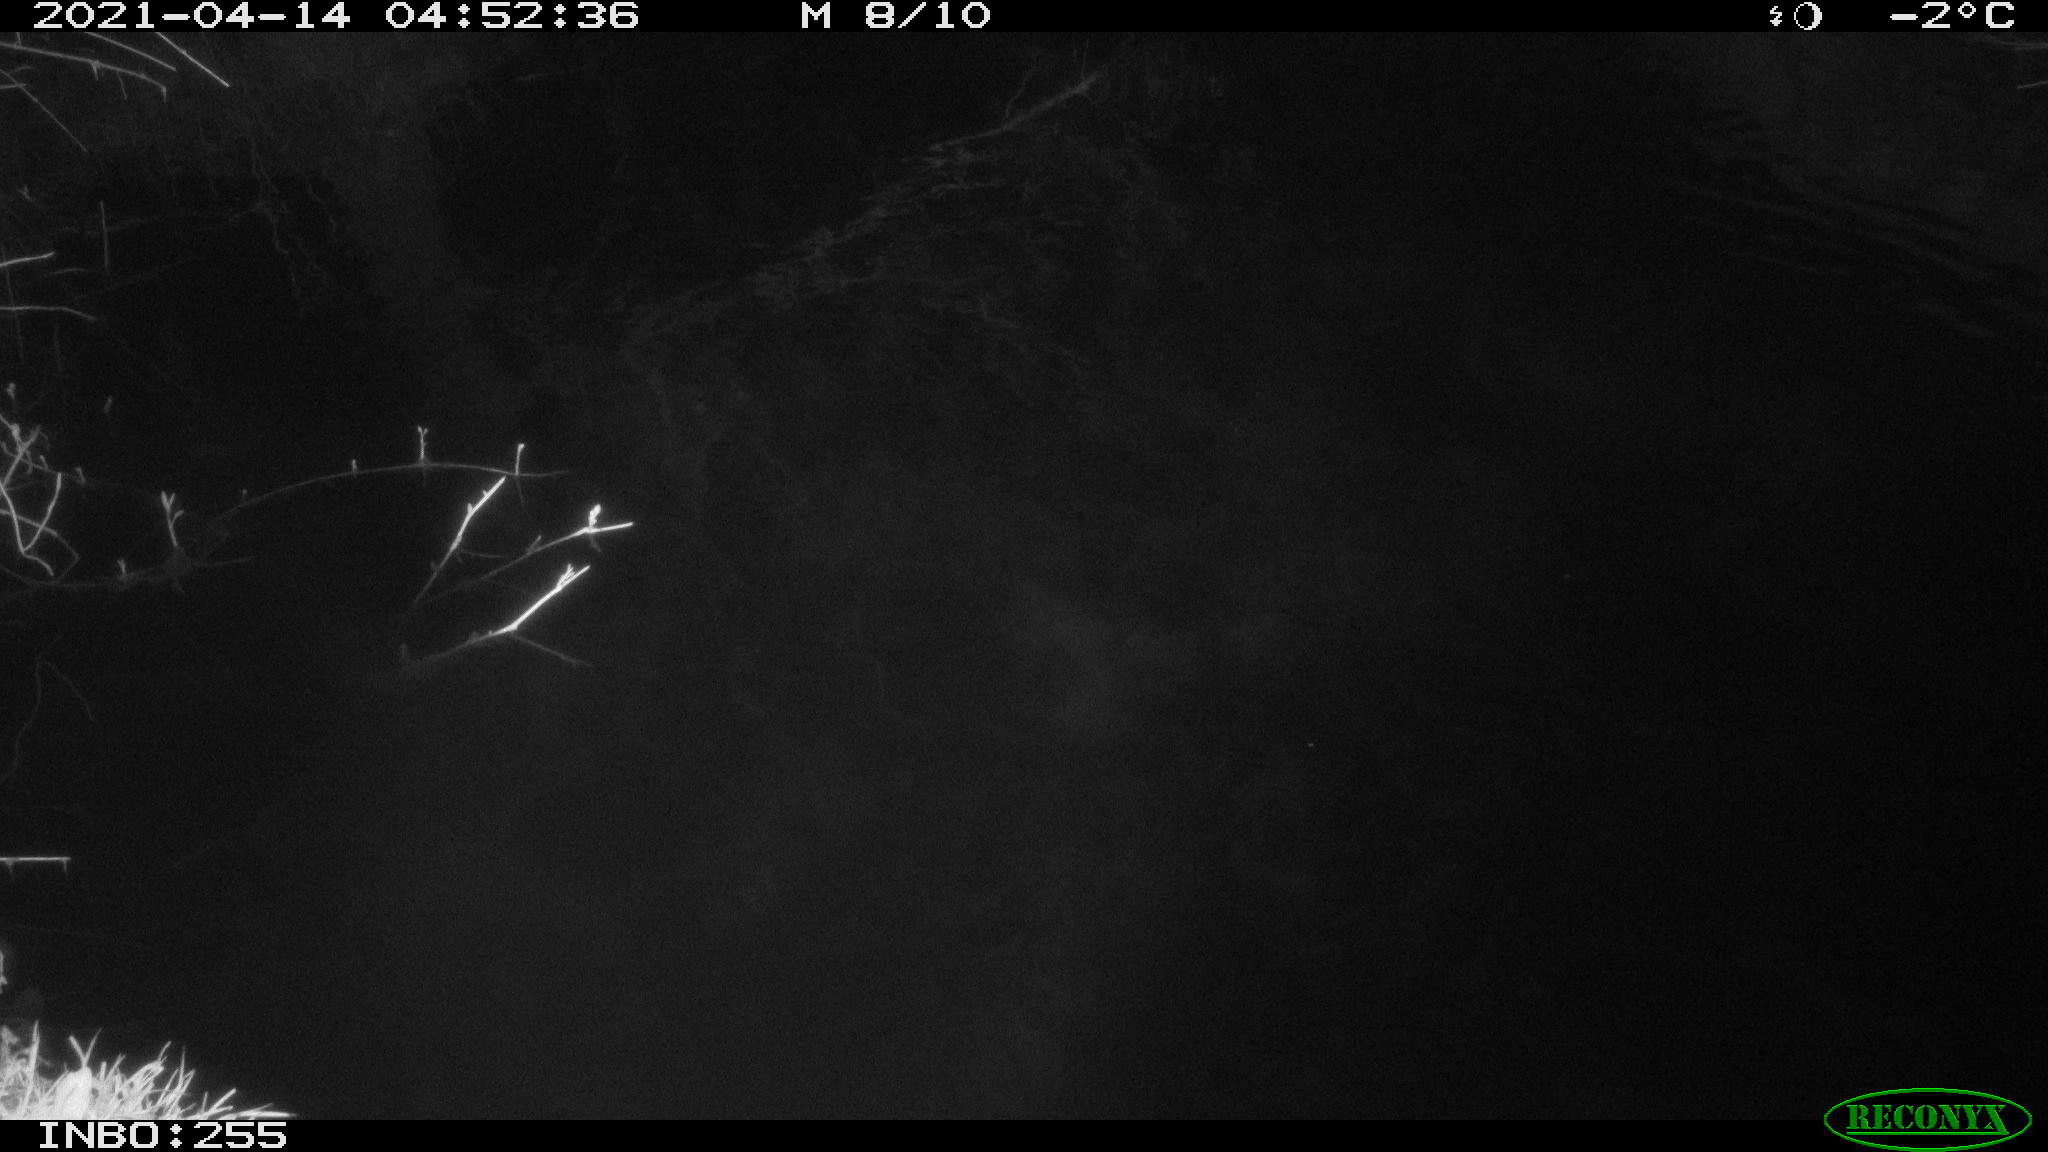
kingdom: Animalia
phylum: Chordata
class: Aves
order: Anseriformes
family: Anatidae
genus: Anas
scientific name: Anas platyrhynchos
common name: Mallard
